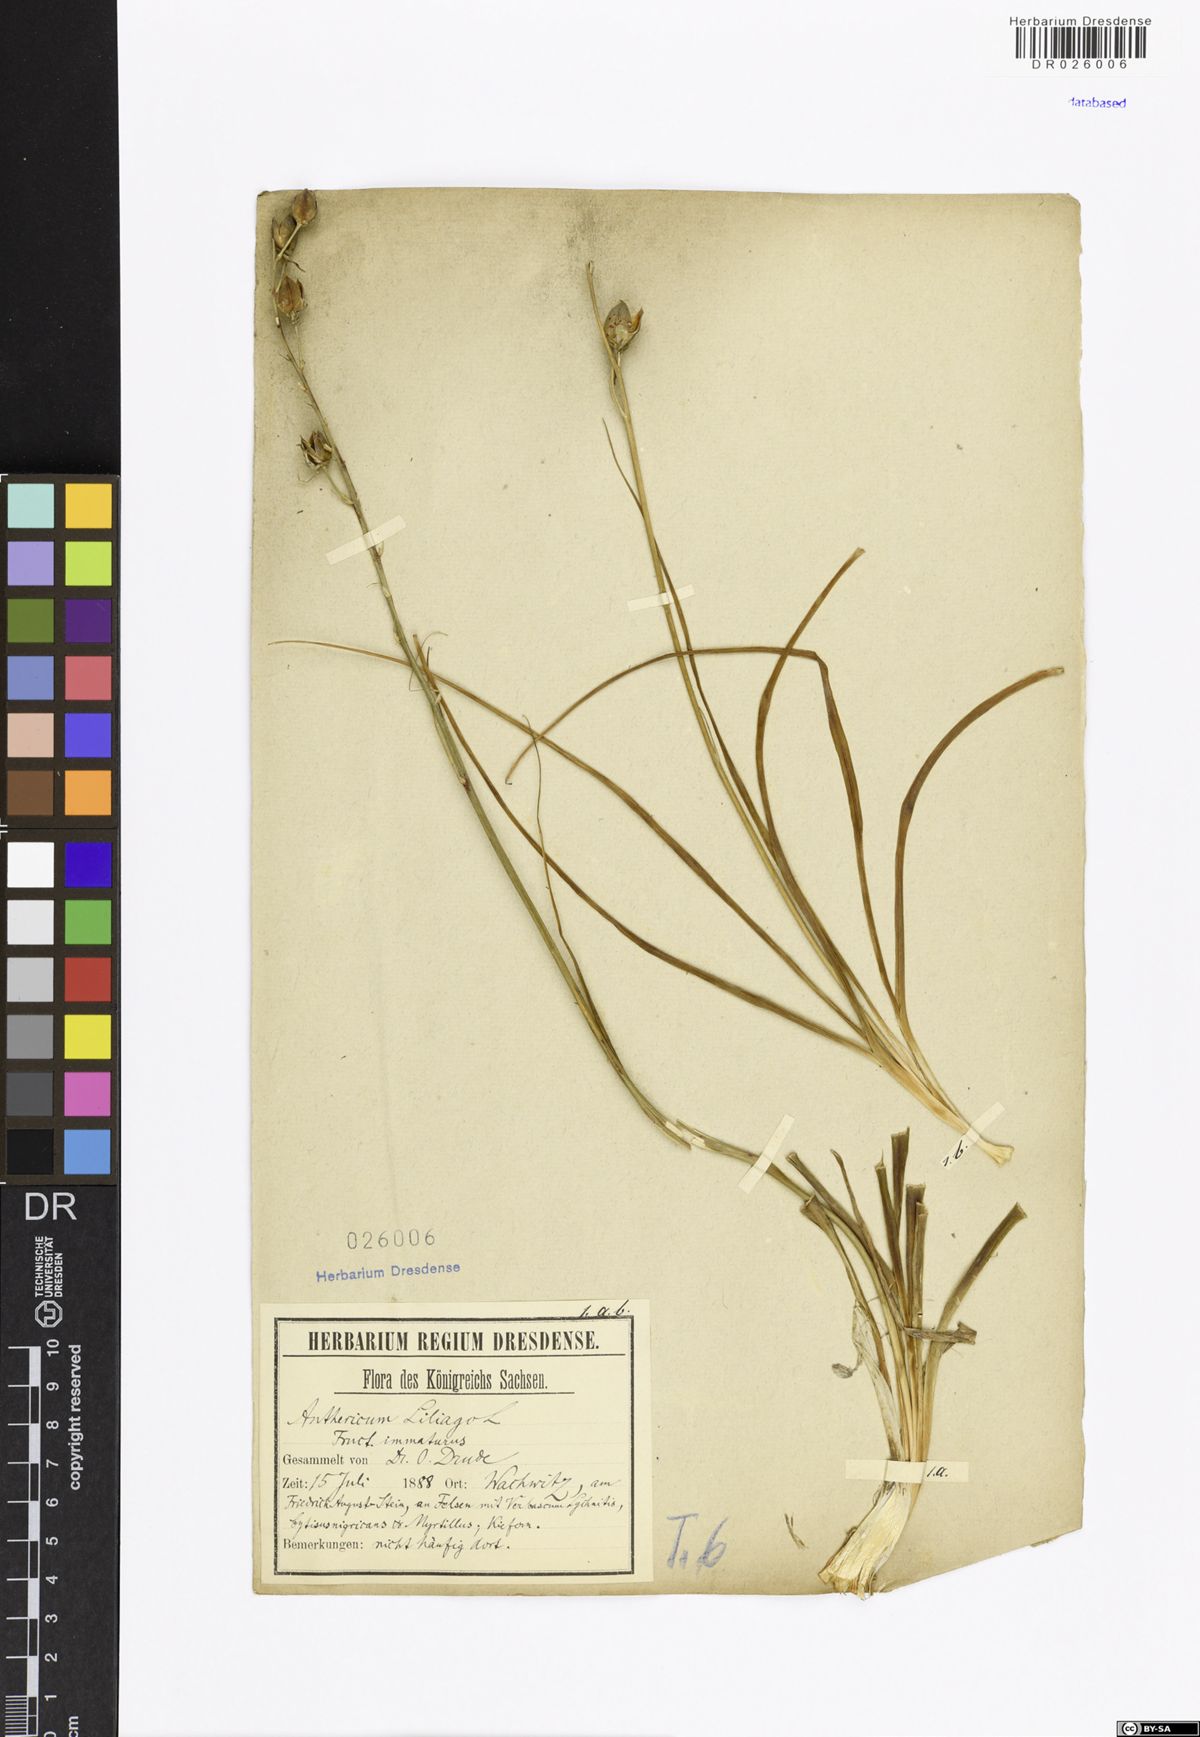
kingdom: Plantae
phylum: Tracheophyta
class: Liliopsida
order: Asparagales
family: Asparagaceae
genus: Anthericum
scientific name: Anthericum liliago
